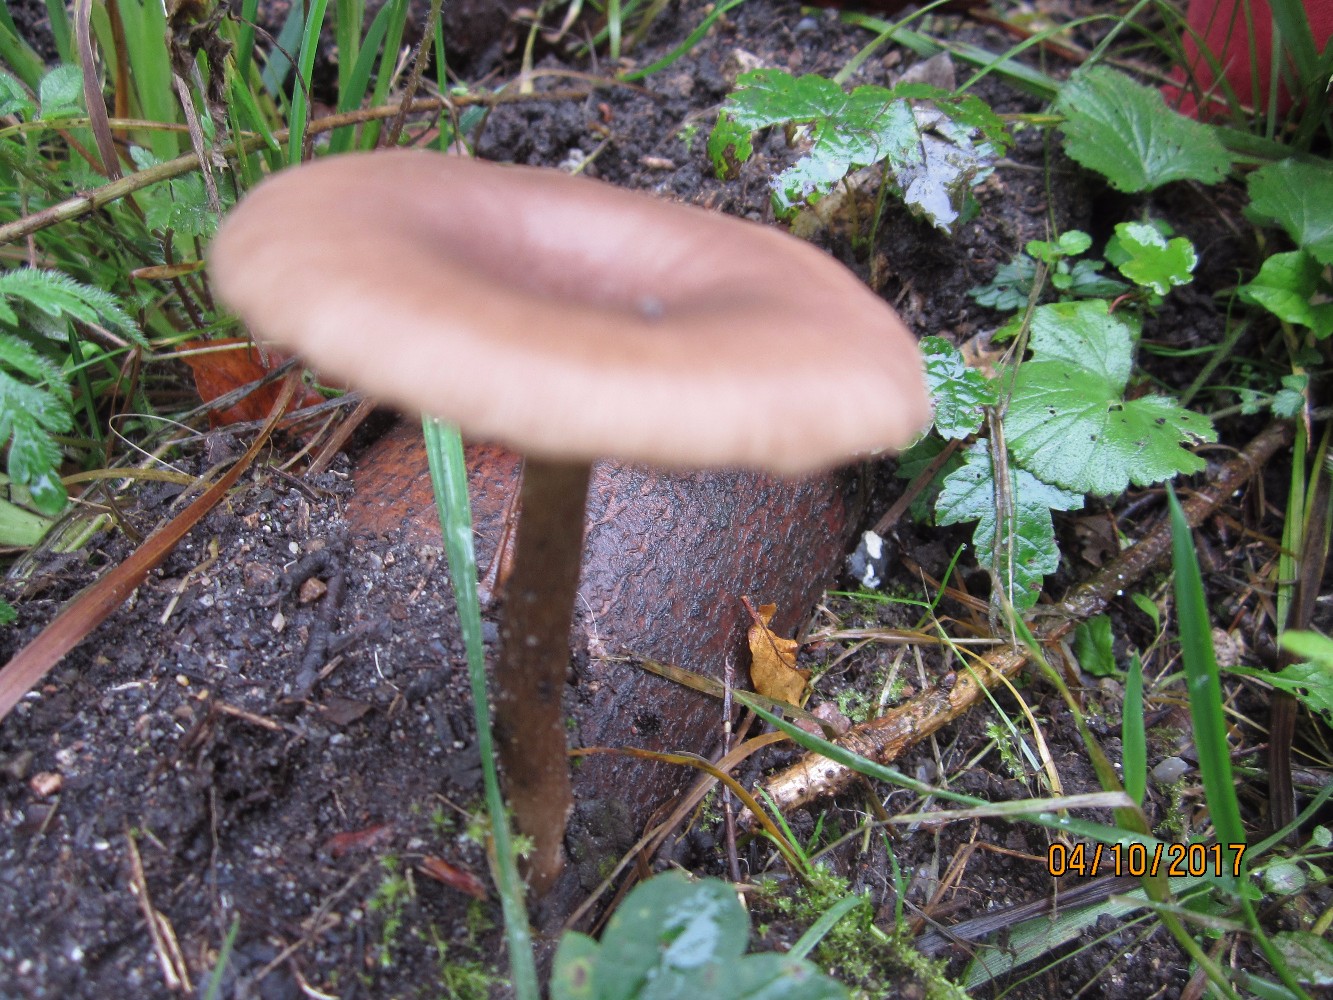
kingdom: Fungi
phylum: Basidiomycota
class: Agaricomycetes
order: Agaricales
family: Pseudoclitocybaceae
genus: Pseudoclitocybe
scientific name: Pseudoclitocybe cyathiformis
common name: almindelig bægertragthat
